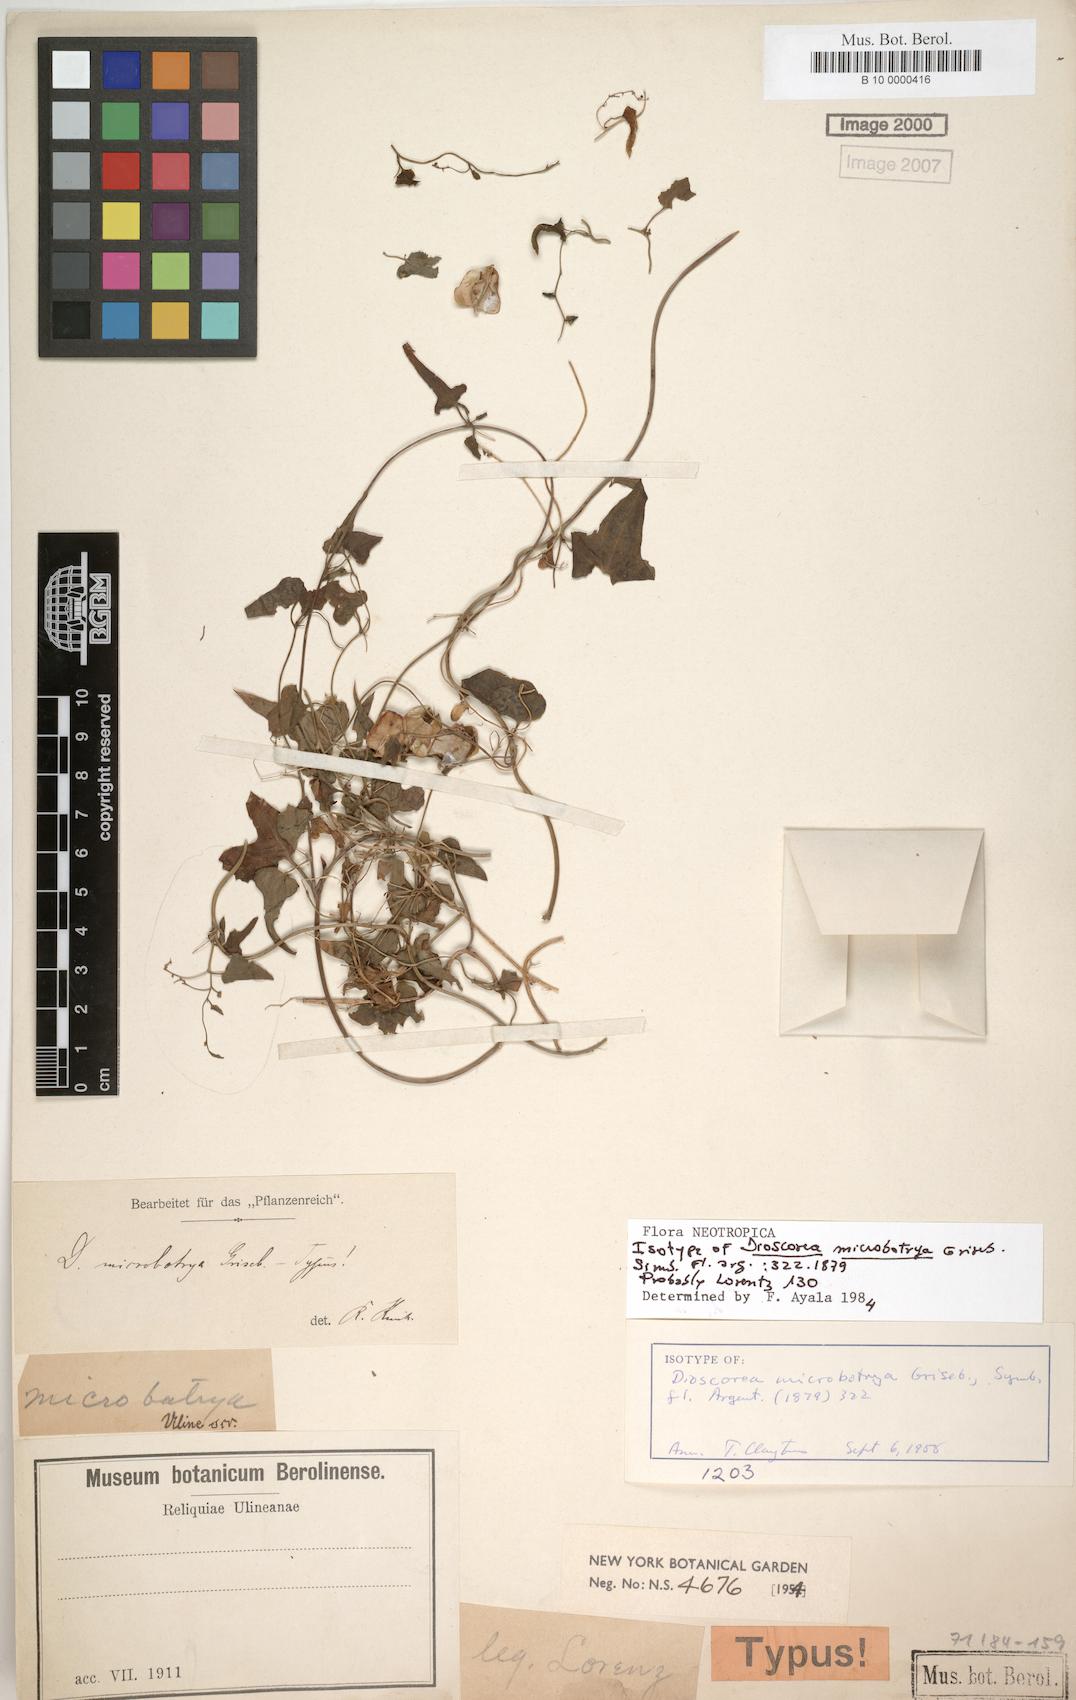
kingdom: Plantae
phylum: Tracheophyta
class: Liliopsida
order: Dioscoreales
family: Dioscoreaceae
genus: Dioscorea
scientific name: Dioscorea microbotrya
